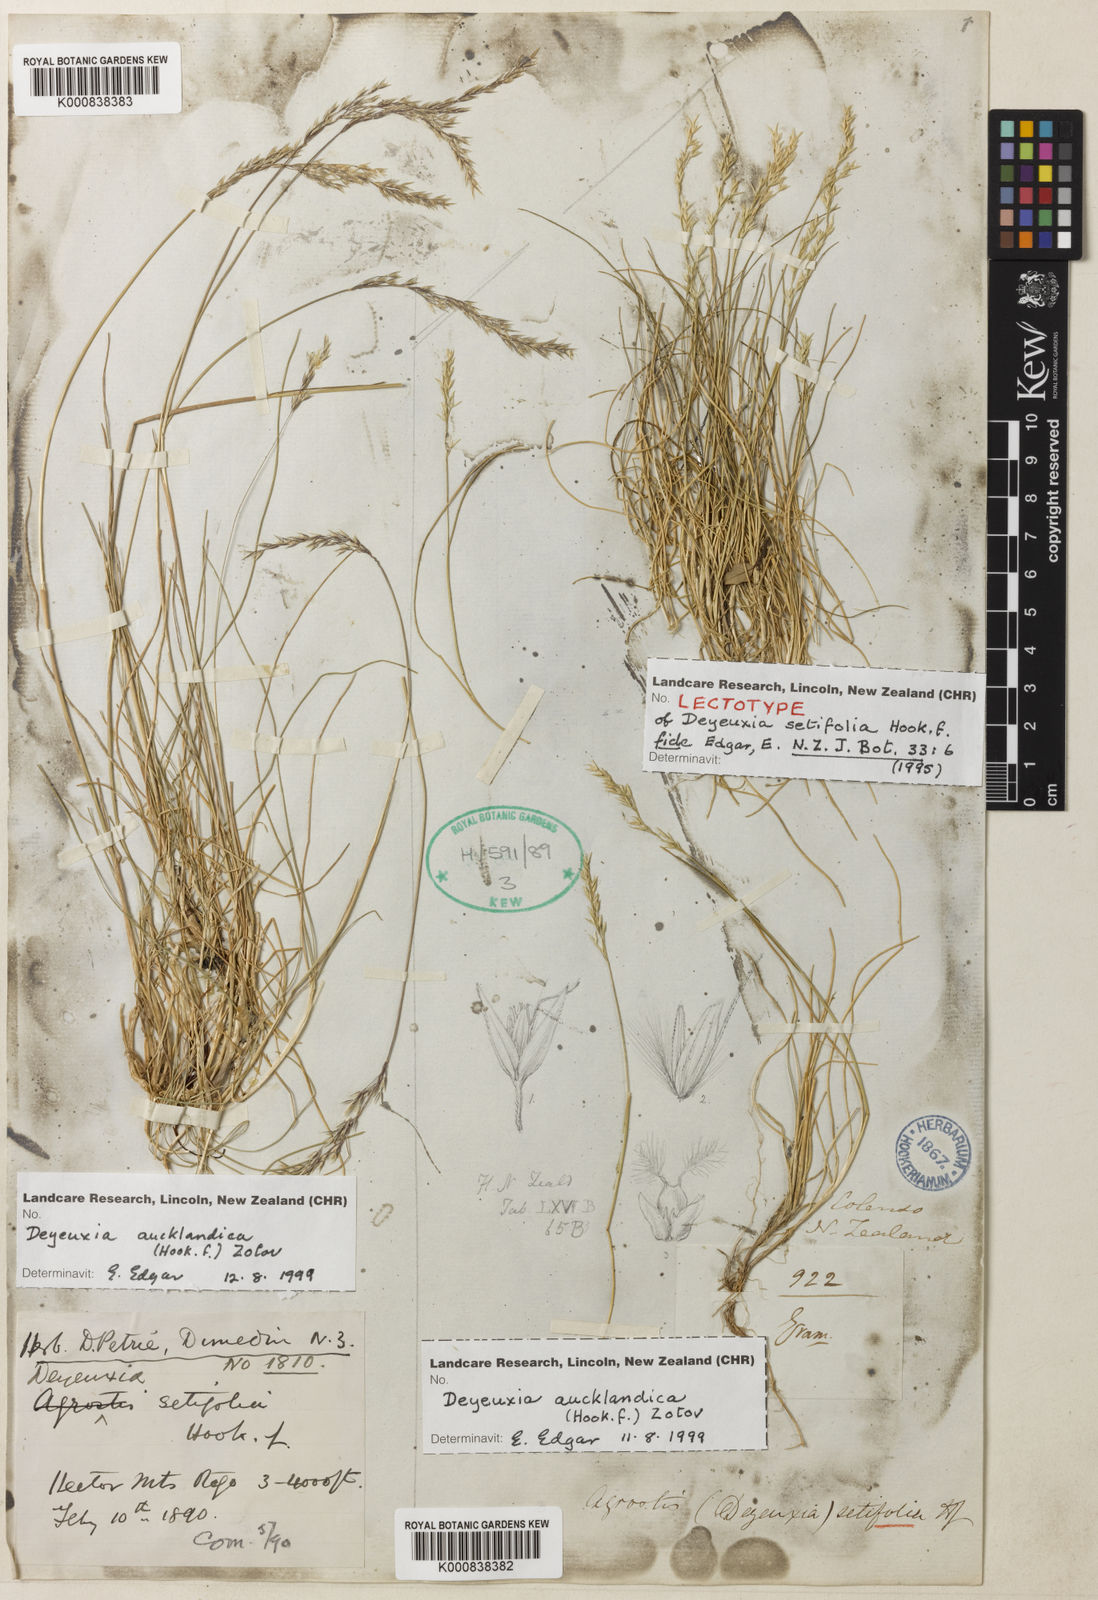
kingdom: Plantae
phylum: Tracheophyta
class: Liliopsida
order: Poales
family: Poaceae
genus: Agrostis
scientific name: Agrostis aucklandica
